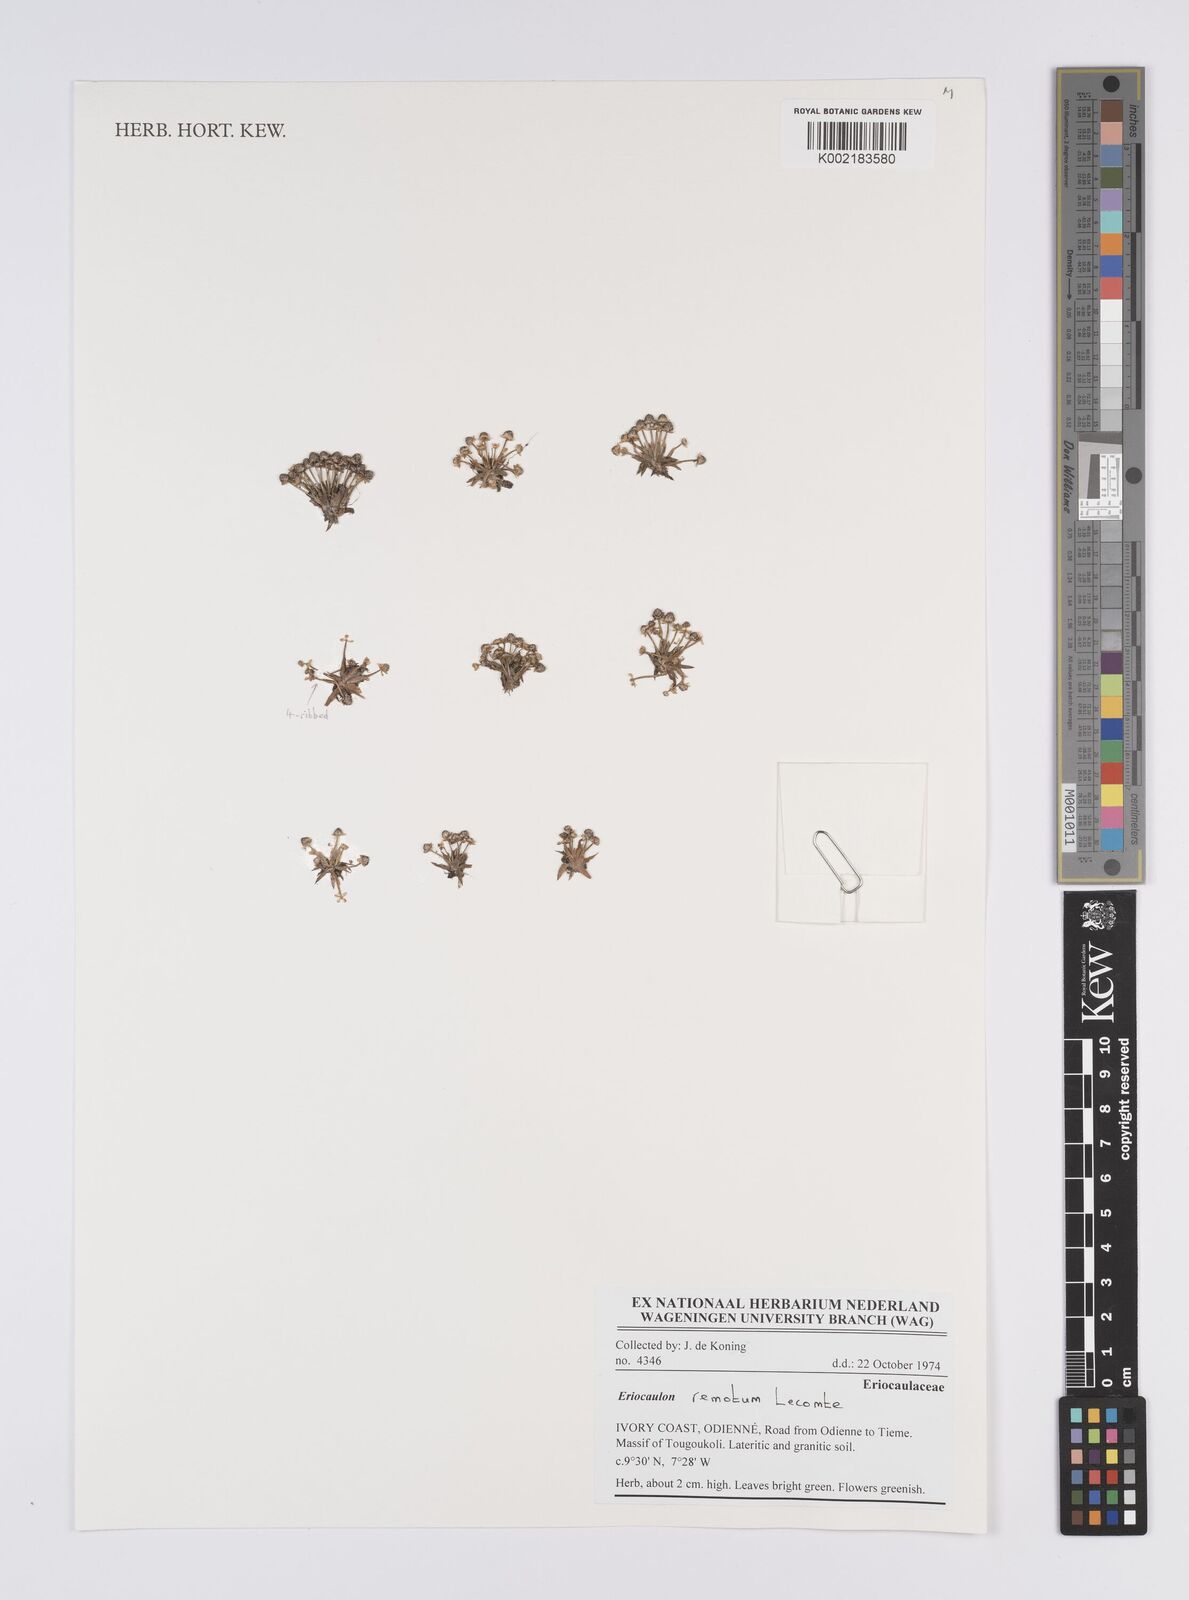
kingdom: Plantae
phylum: Tracheophyta
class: Liliopsida
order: Poales
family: Eriocaulaceae
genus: Eriocaulon
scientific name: Eriocaulon remotum
